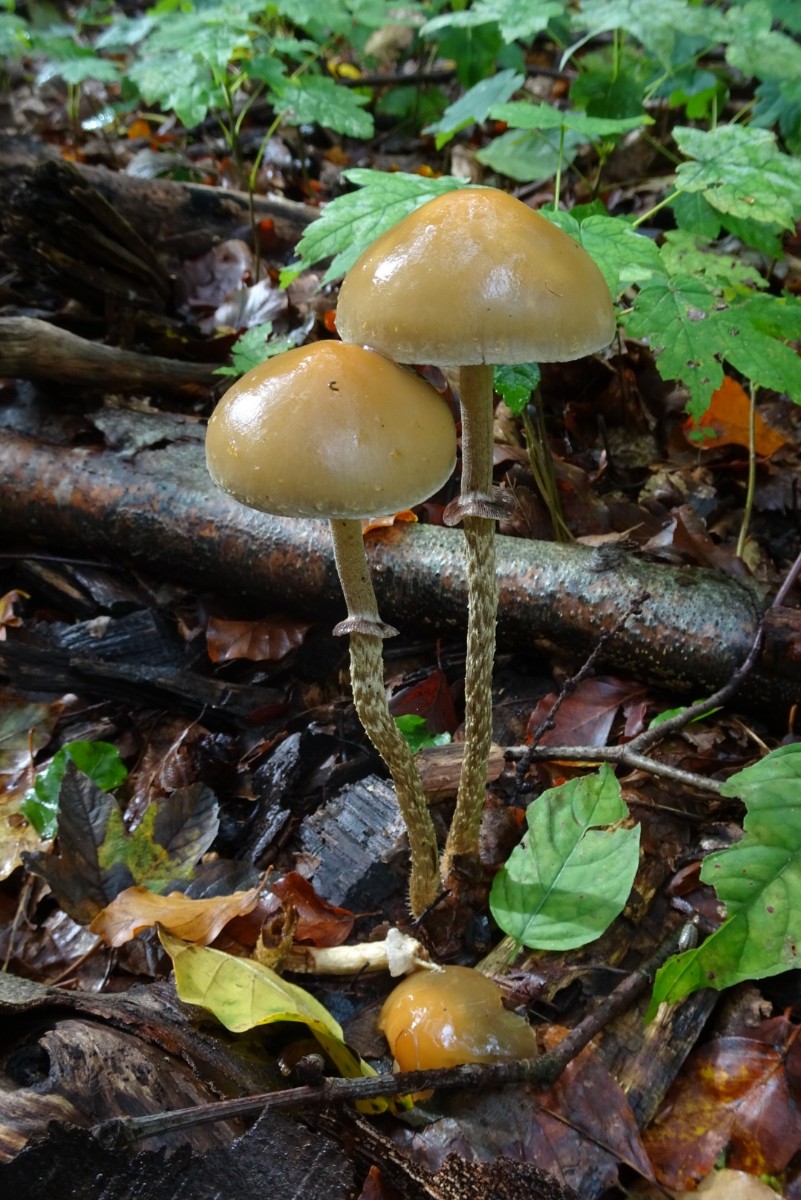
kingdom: Fungi
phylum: Basidiomycota
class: Agaricomycetes
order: Agaricales
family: Strophariaceae
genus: Leratiomyces
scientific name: Leratiomyces squamosus
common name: skællet bredblad
